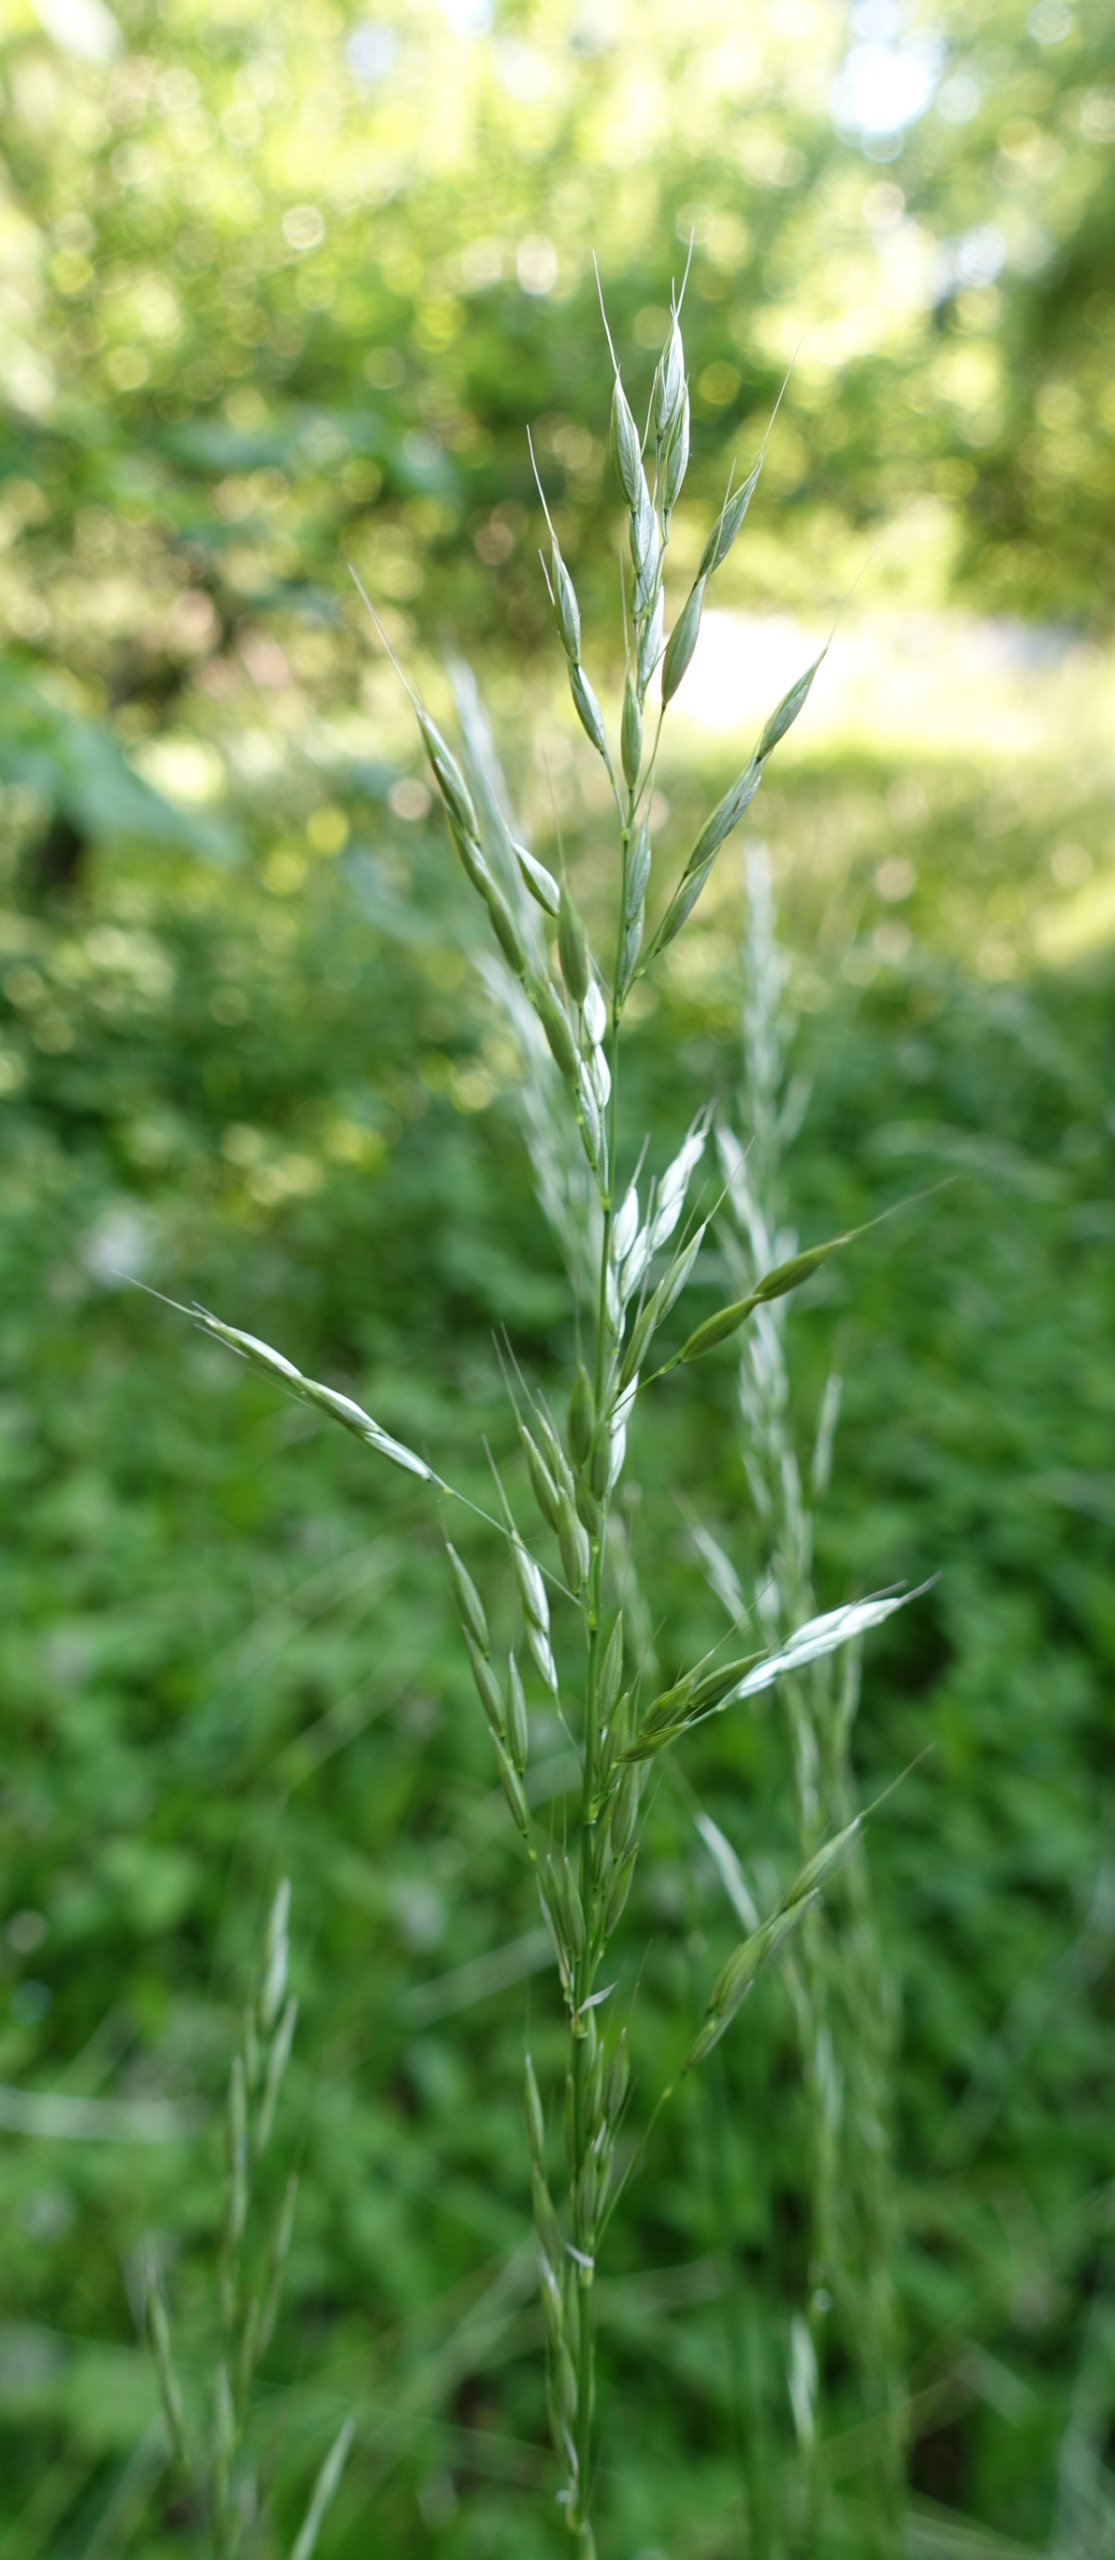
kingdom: Plantae
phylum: Tracheophyta
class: Liliopsida
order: Poales
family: Poaceae
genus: Arrhenatherum
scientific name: Arrhenatherum elatius
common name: Draphavre
